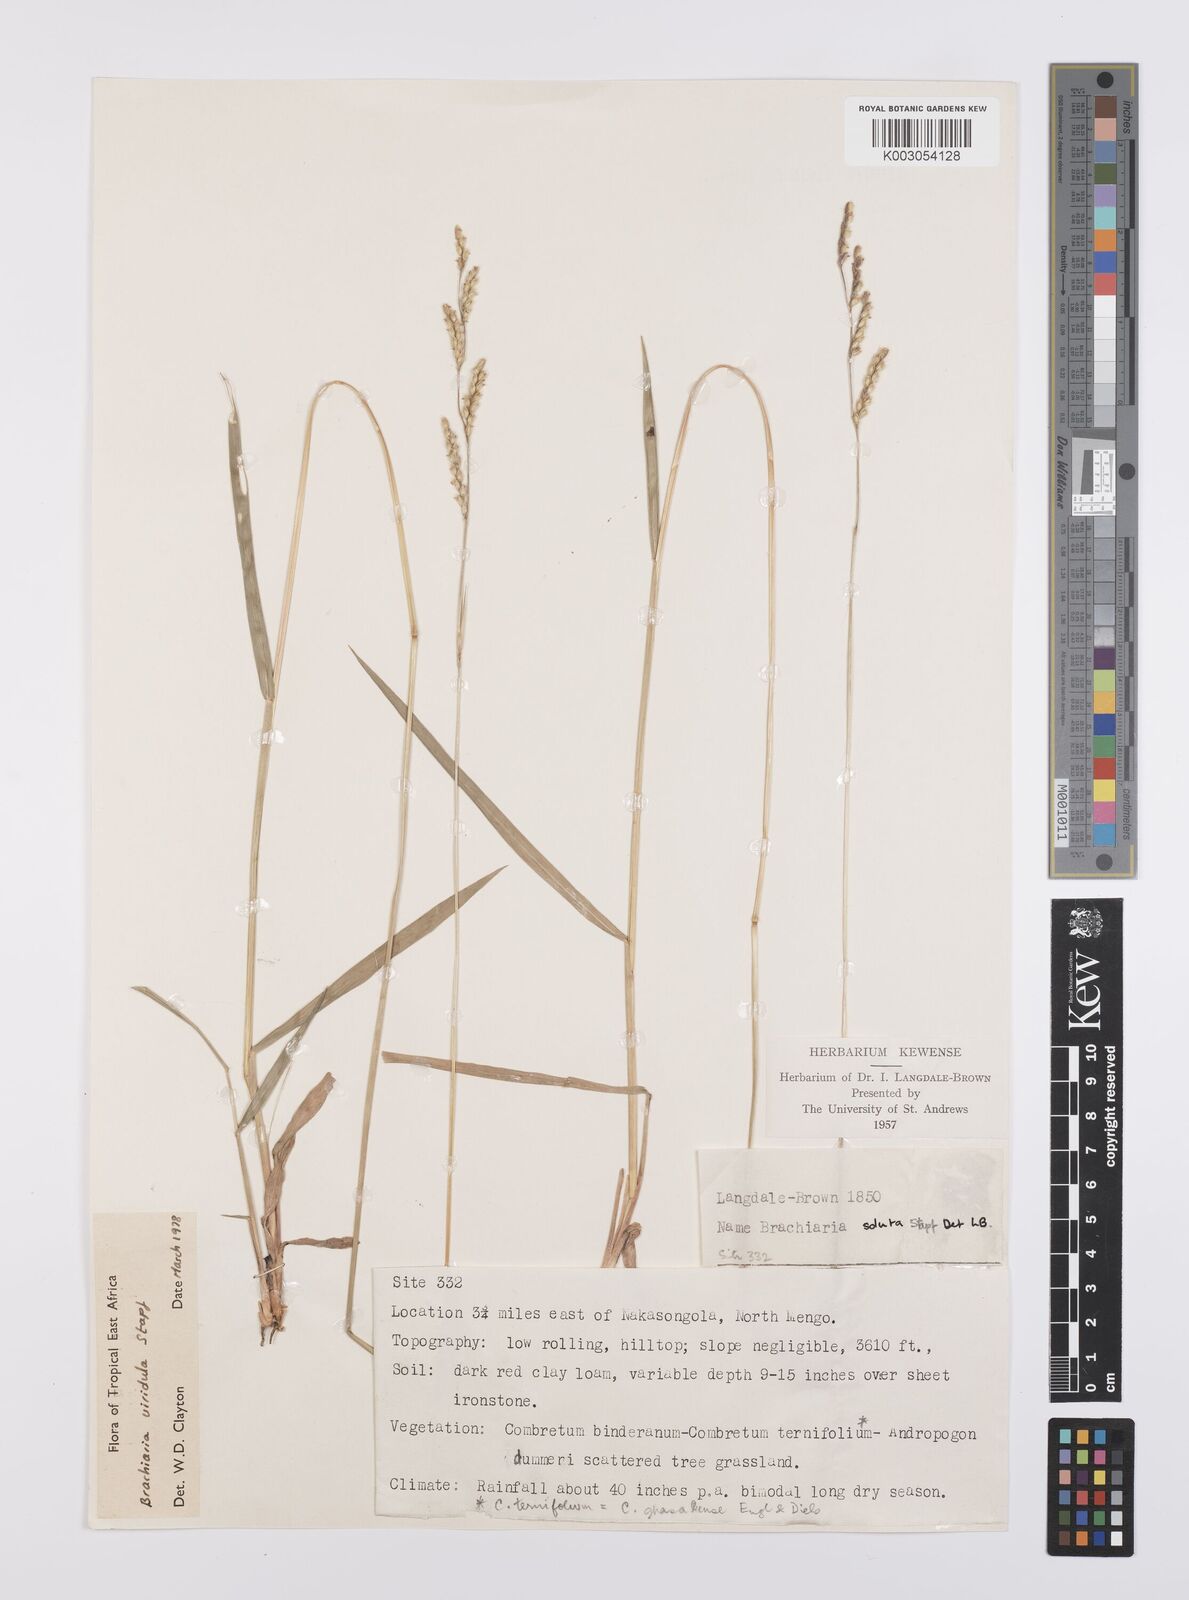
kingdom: Plantae
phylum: Tracheophyta
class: Liliopsida
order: Poales
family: Poaceae
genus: Urochloa
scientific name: Urochloa bovonei
